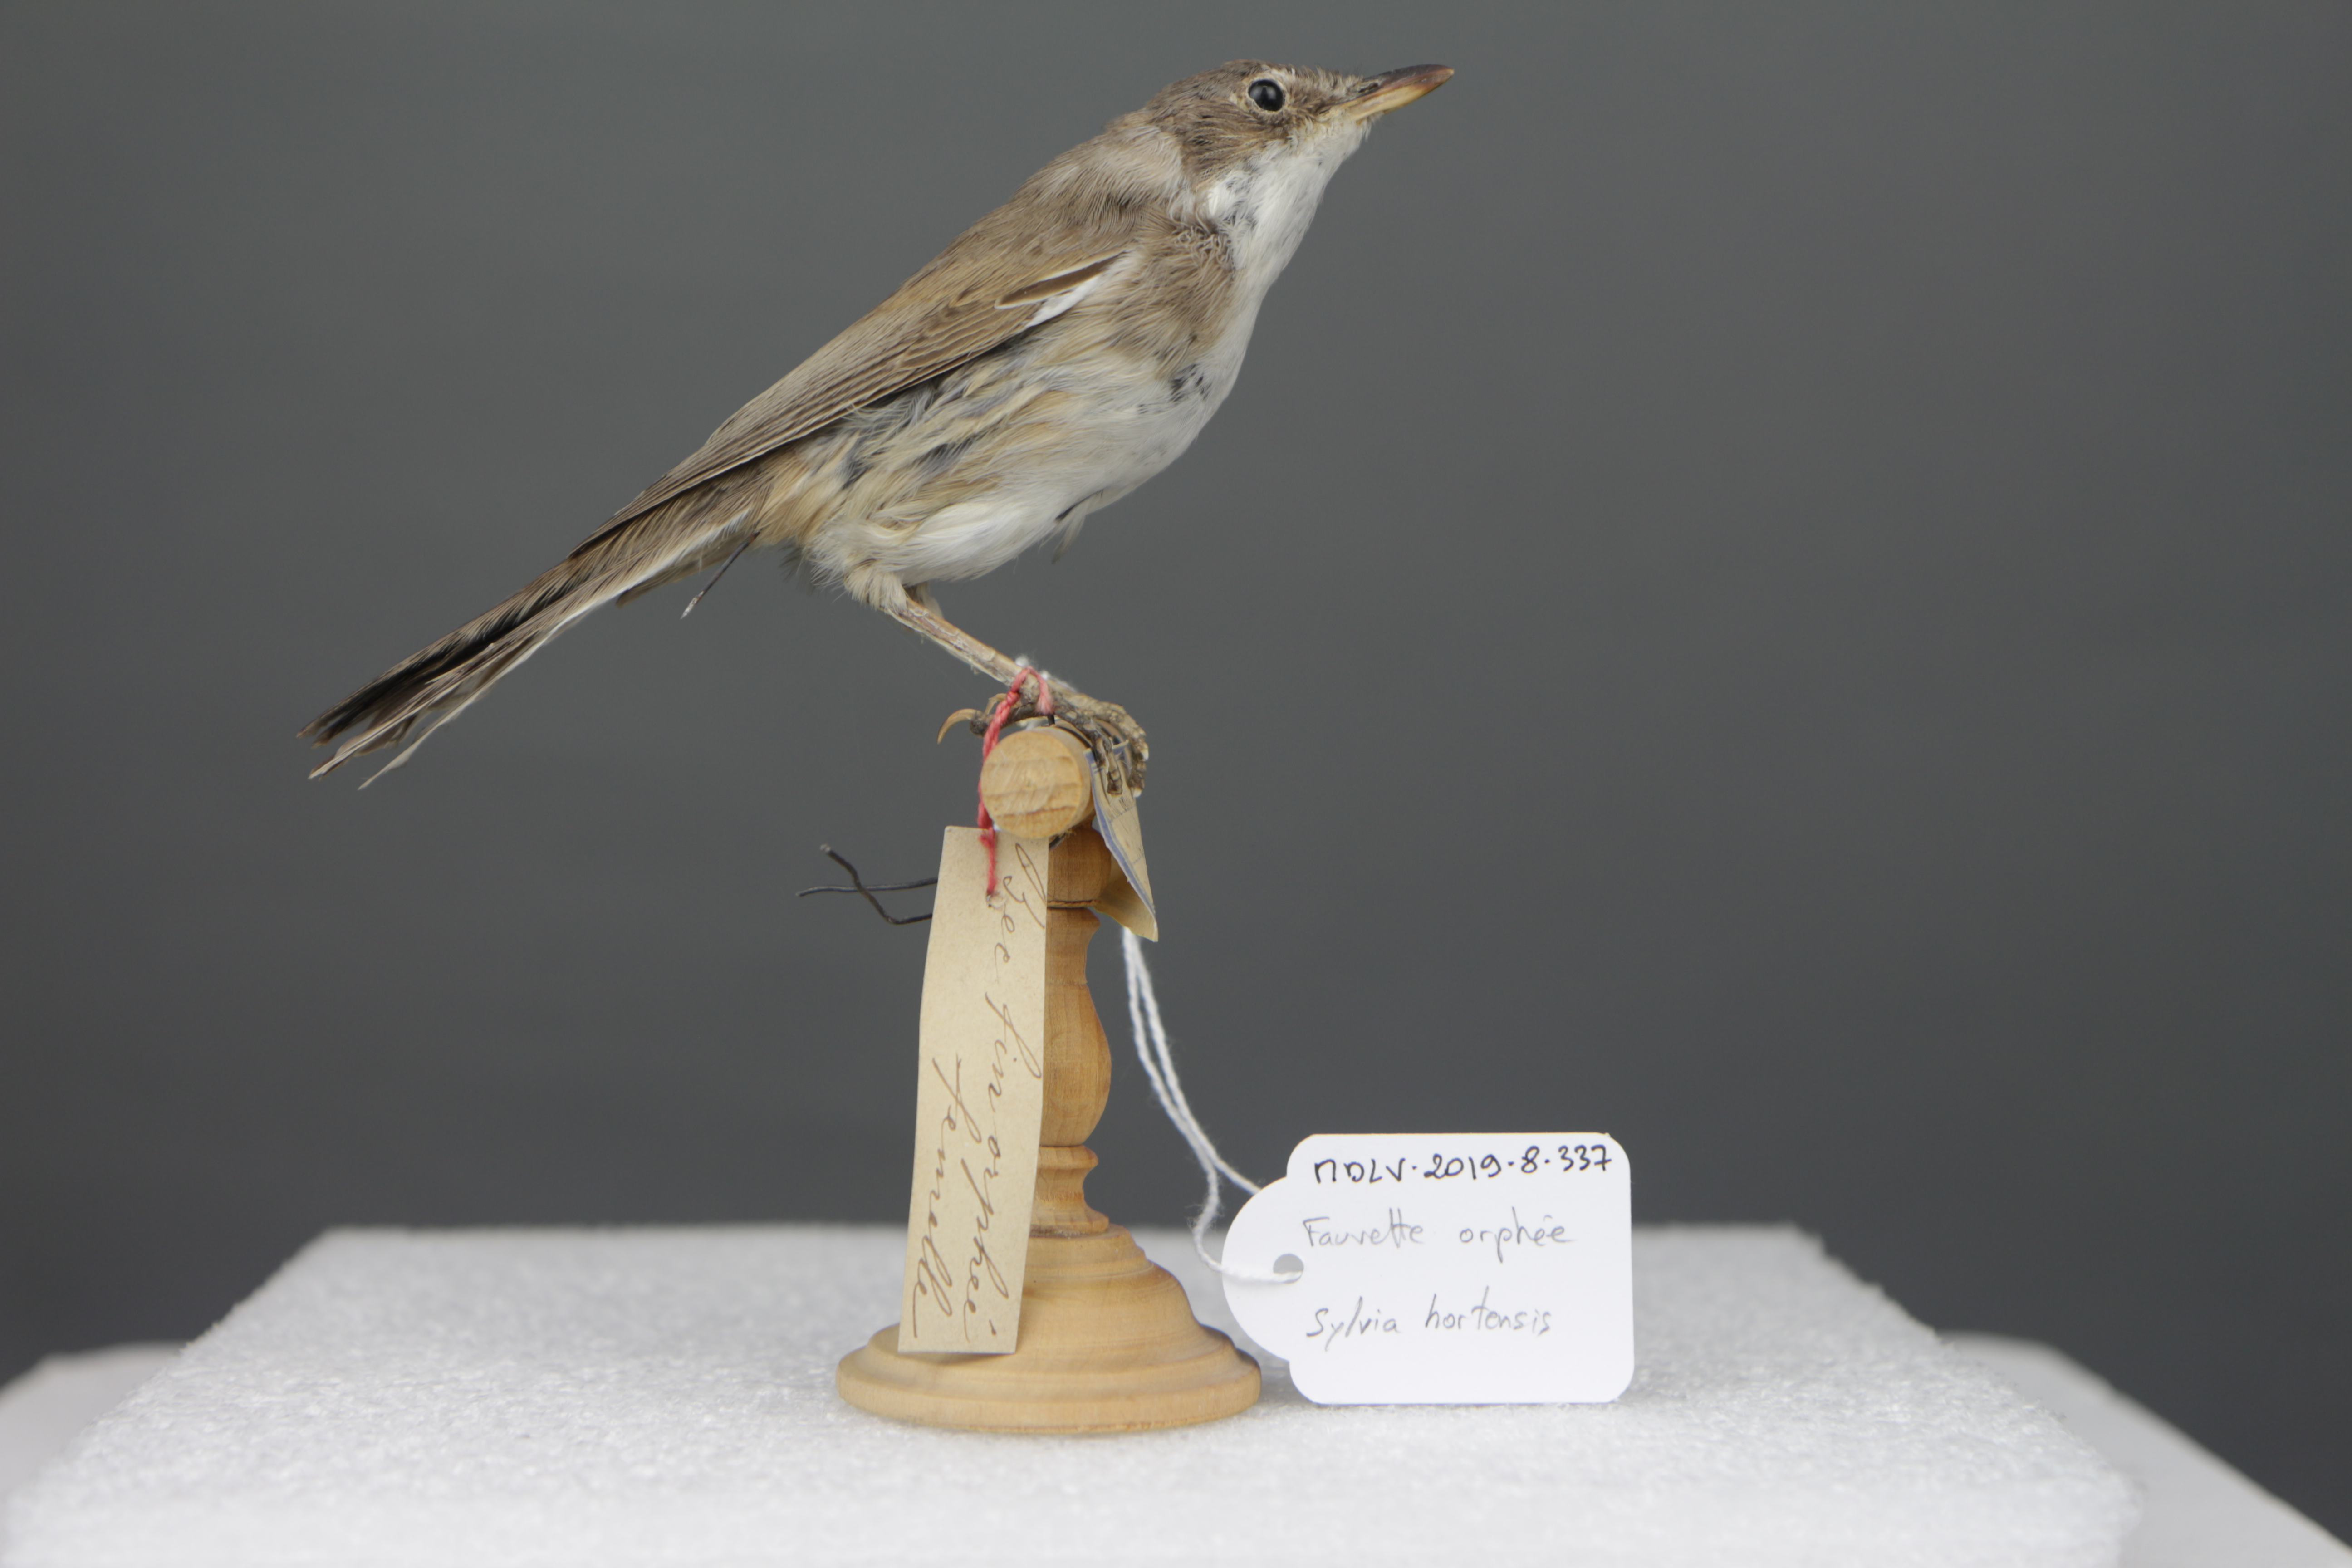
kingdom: Animalia
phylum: Chordata
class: Aves
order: Passeriformes
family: Sylviidae
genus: Sylvia
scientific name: Sylvia hortensis
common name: Orphean warbler
